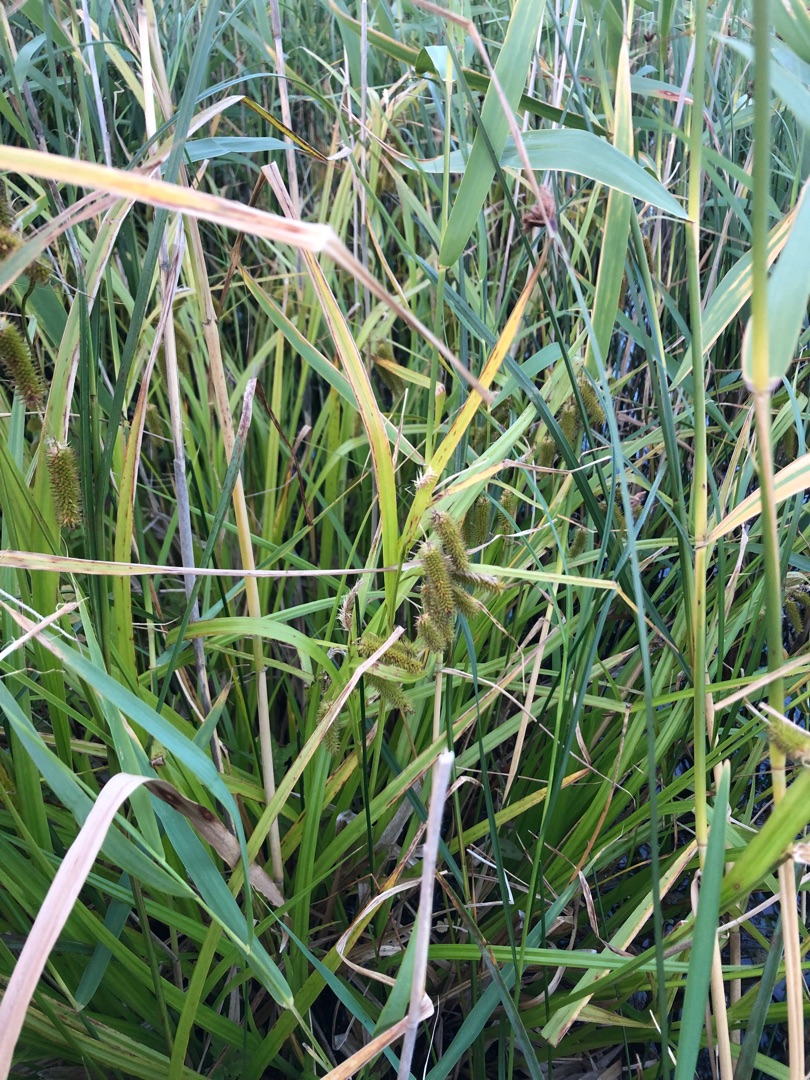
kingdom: Plantae
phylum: Tracheophyta
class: Liliopsida
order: Poales
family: Cyperaceae
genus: Carex
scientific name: Carex pseudocyperus
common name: Knippe-star
